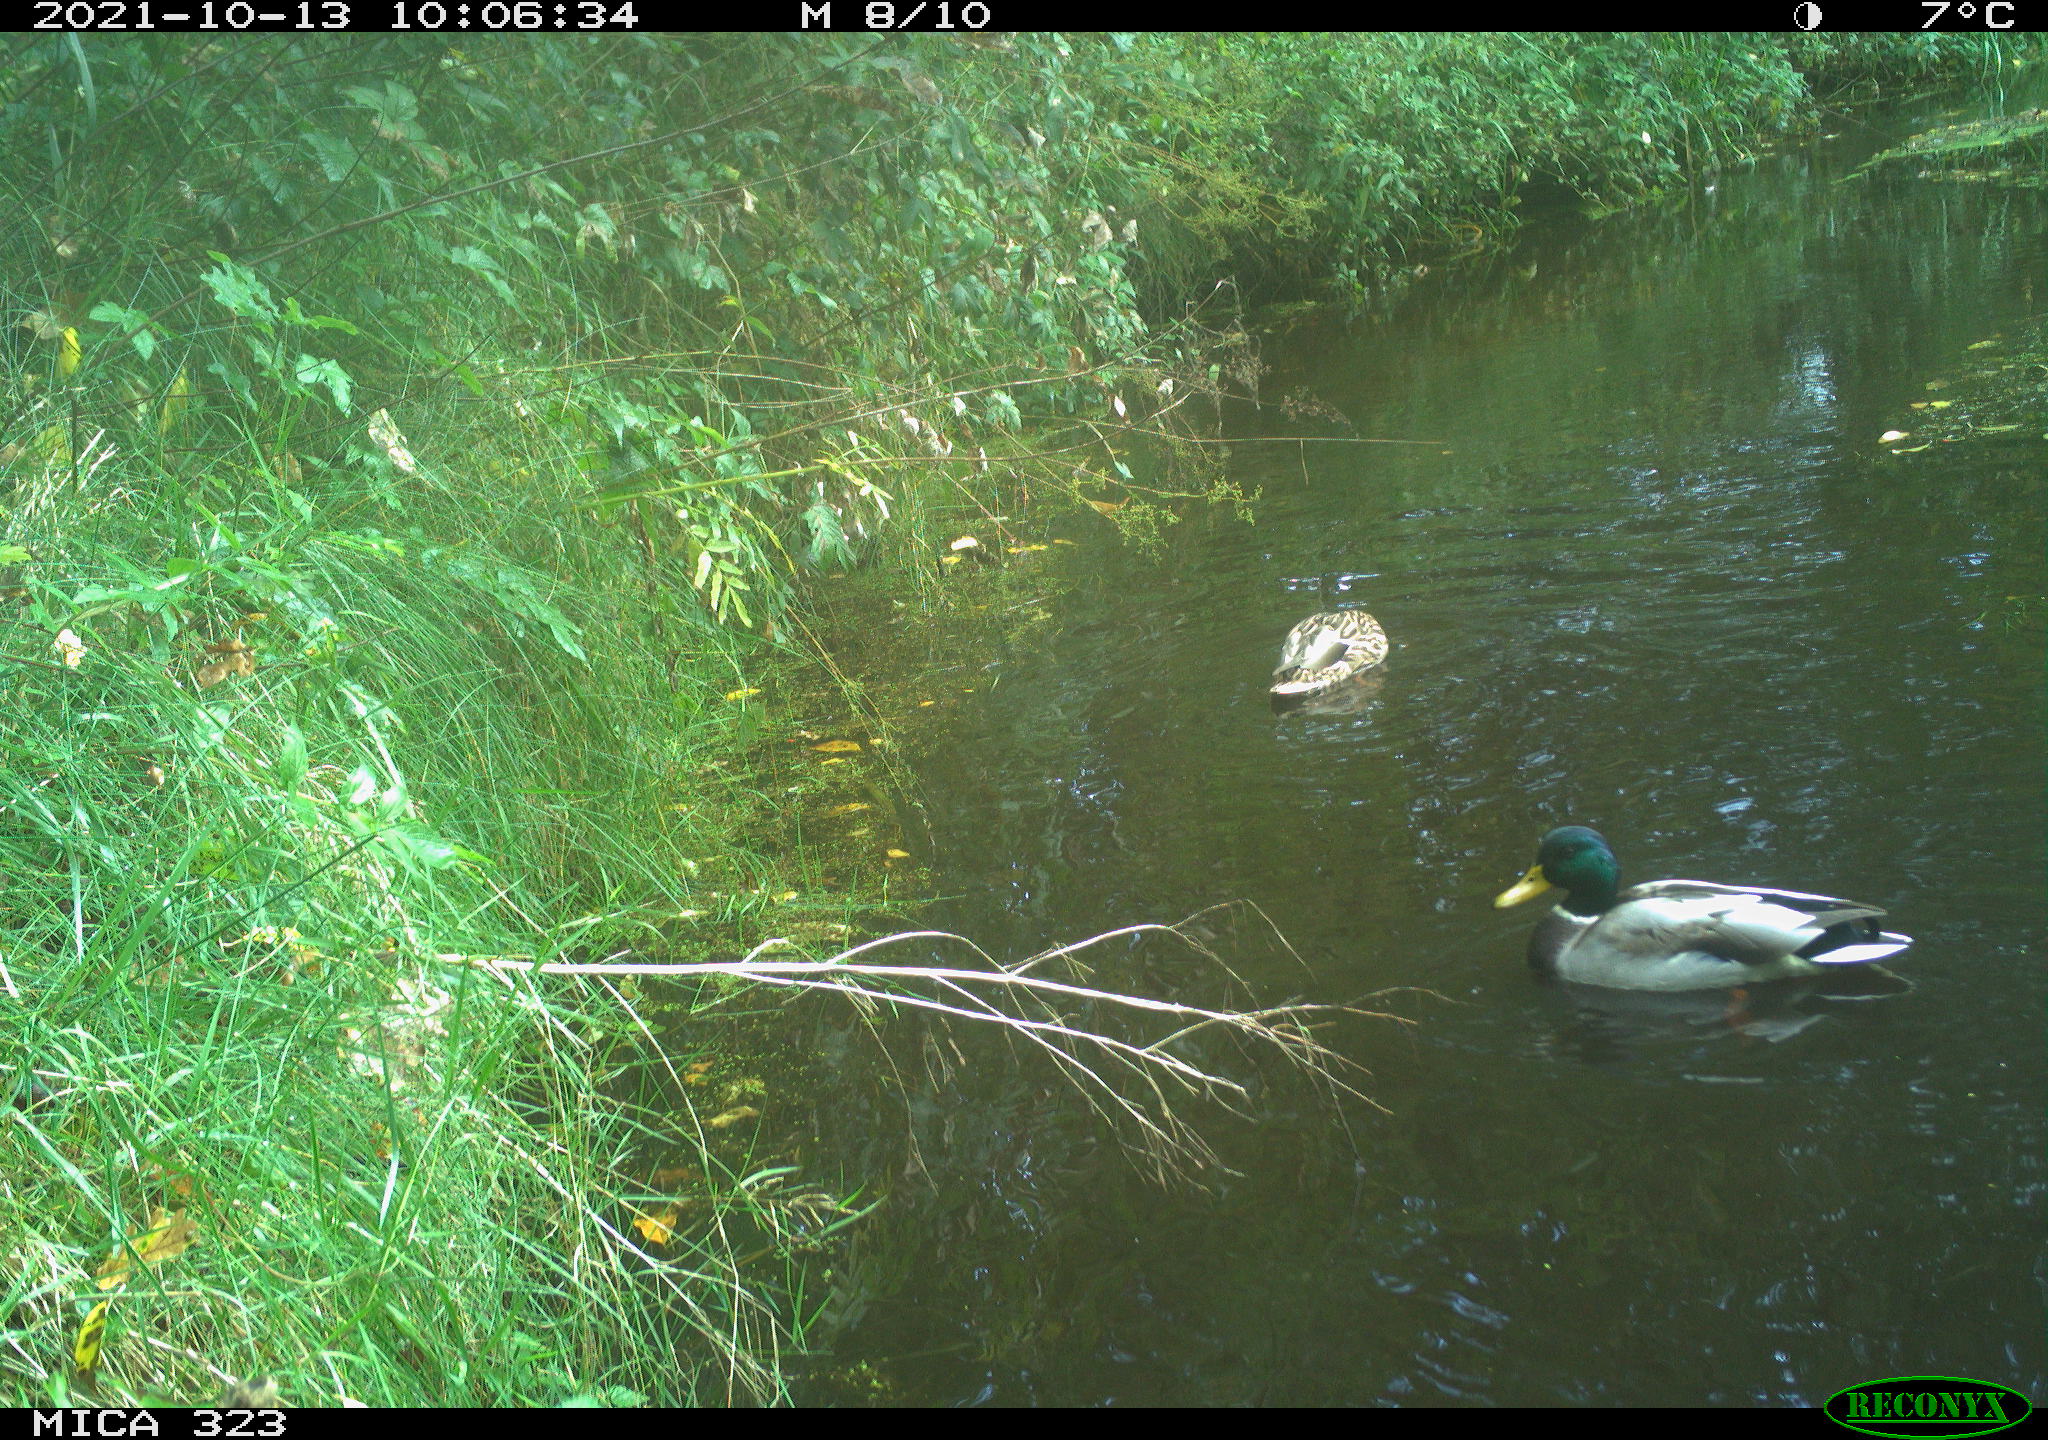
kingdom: Animalia
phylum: Chordata
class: Aves
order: Anseriformes
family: Anatidae
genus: Anas
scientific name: Anas platyrhynchos
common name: Mallard
